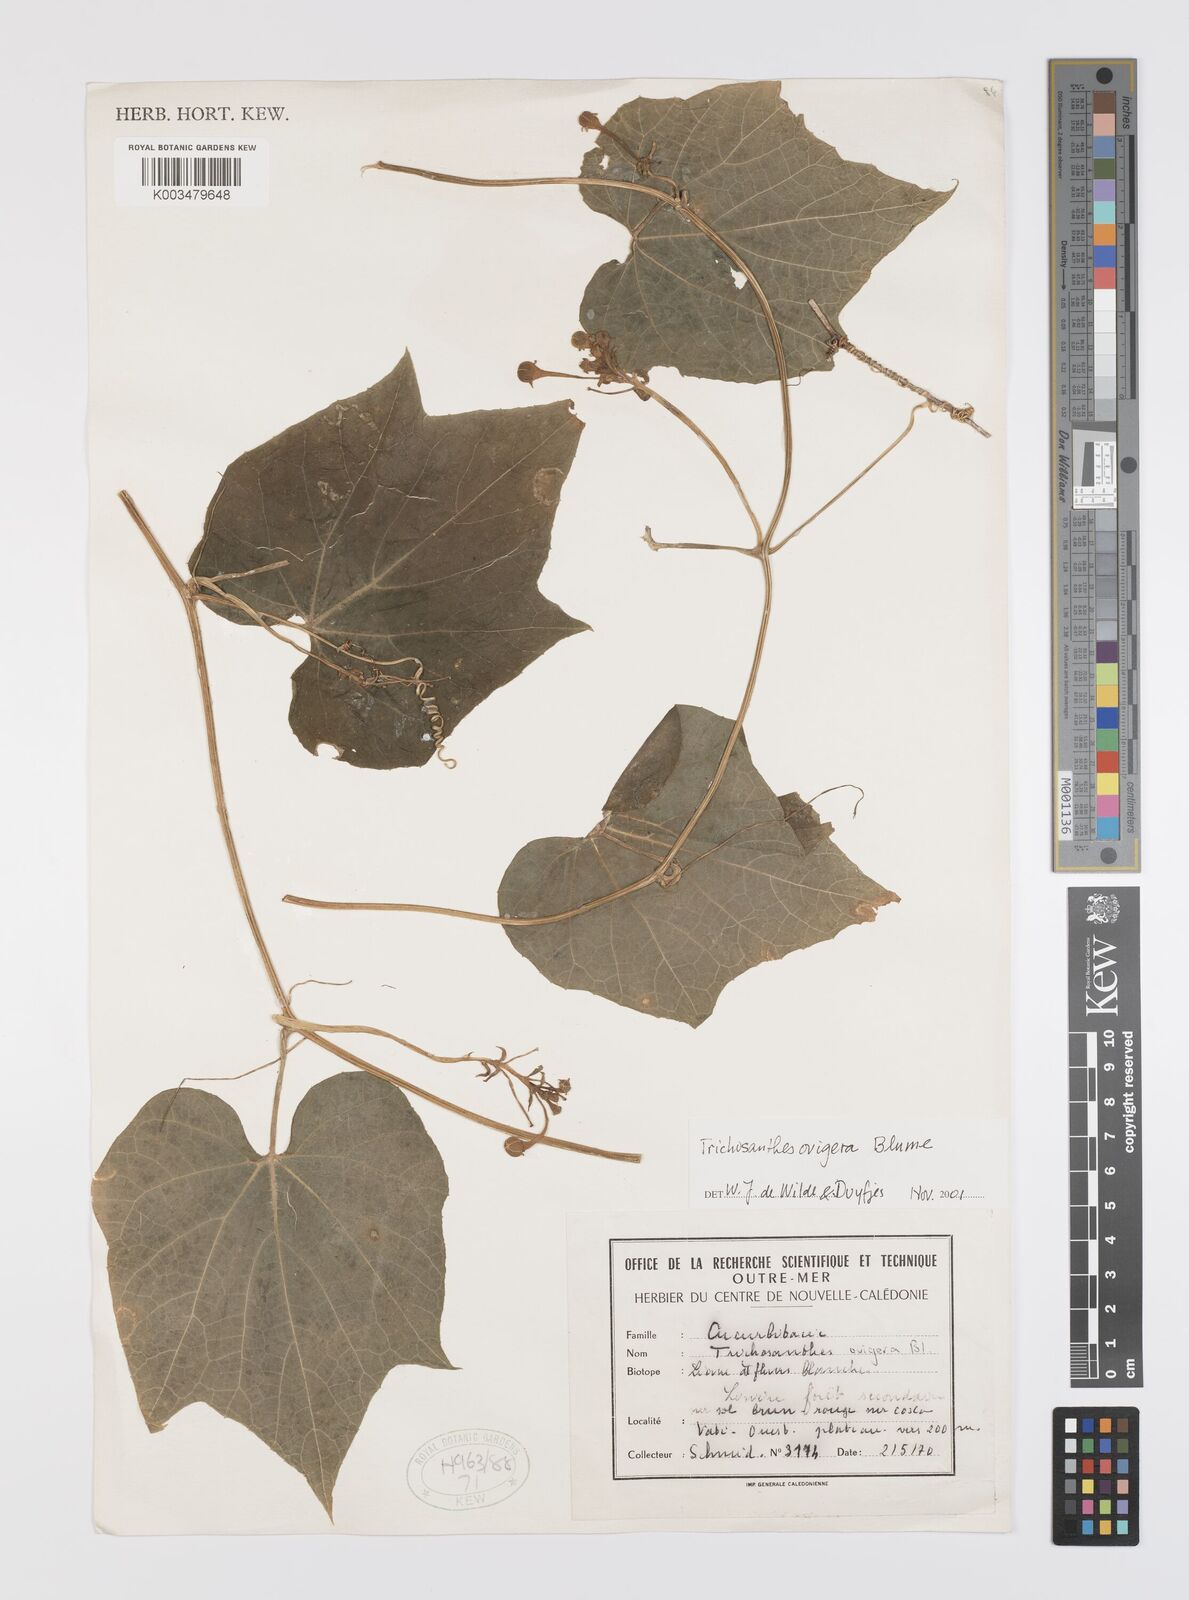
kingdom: Plantae
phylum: Tracheophyta
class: Magnoliopsida
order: Cucurbitales
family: Cucurbitaceae
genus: Trichosanthes
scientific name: Trichosanthes ovigera
